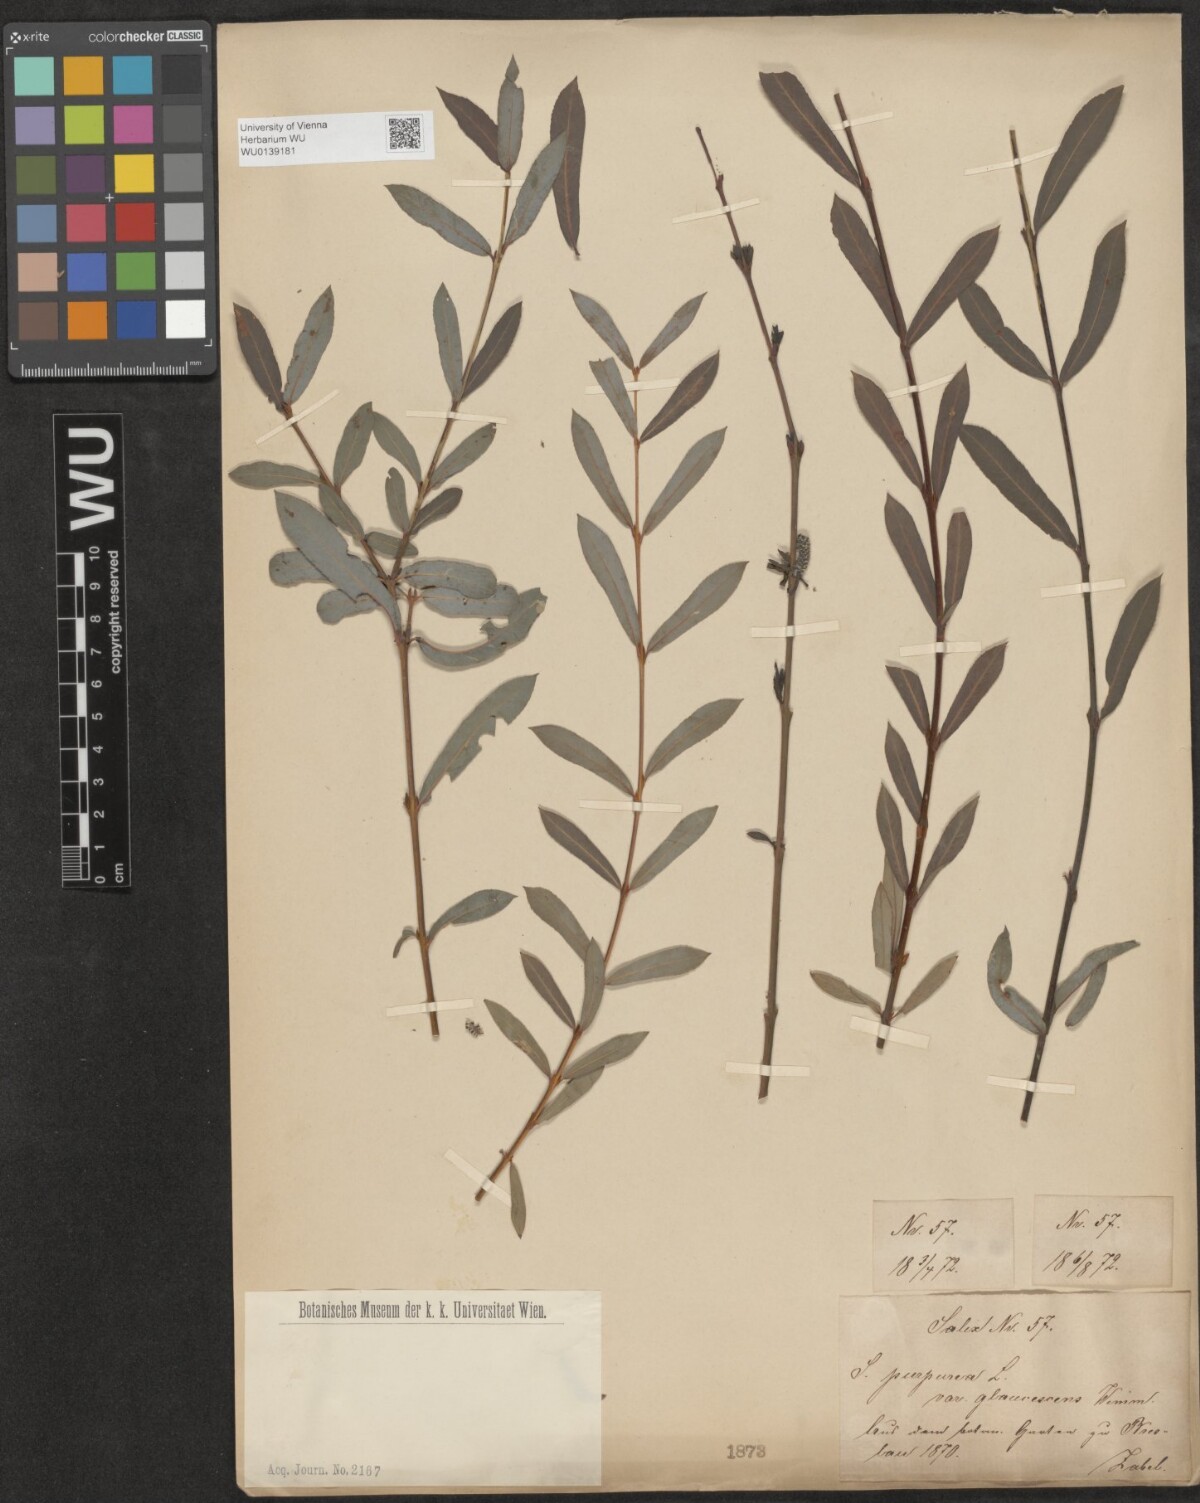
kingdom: Plantae
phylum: Tracheophyta
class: Magnoliopsida
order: Malpighiales
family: Salicaceae
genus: Salix
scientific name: Salix purpurea
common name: Purple willow
